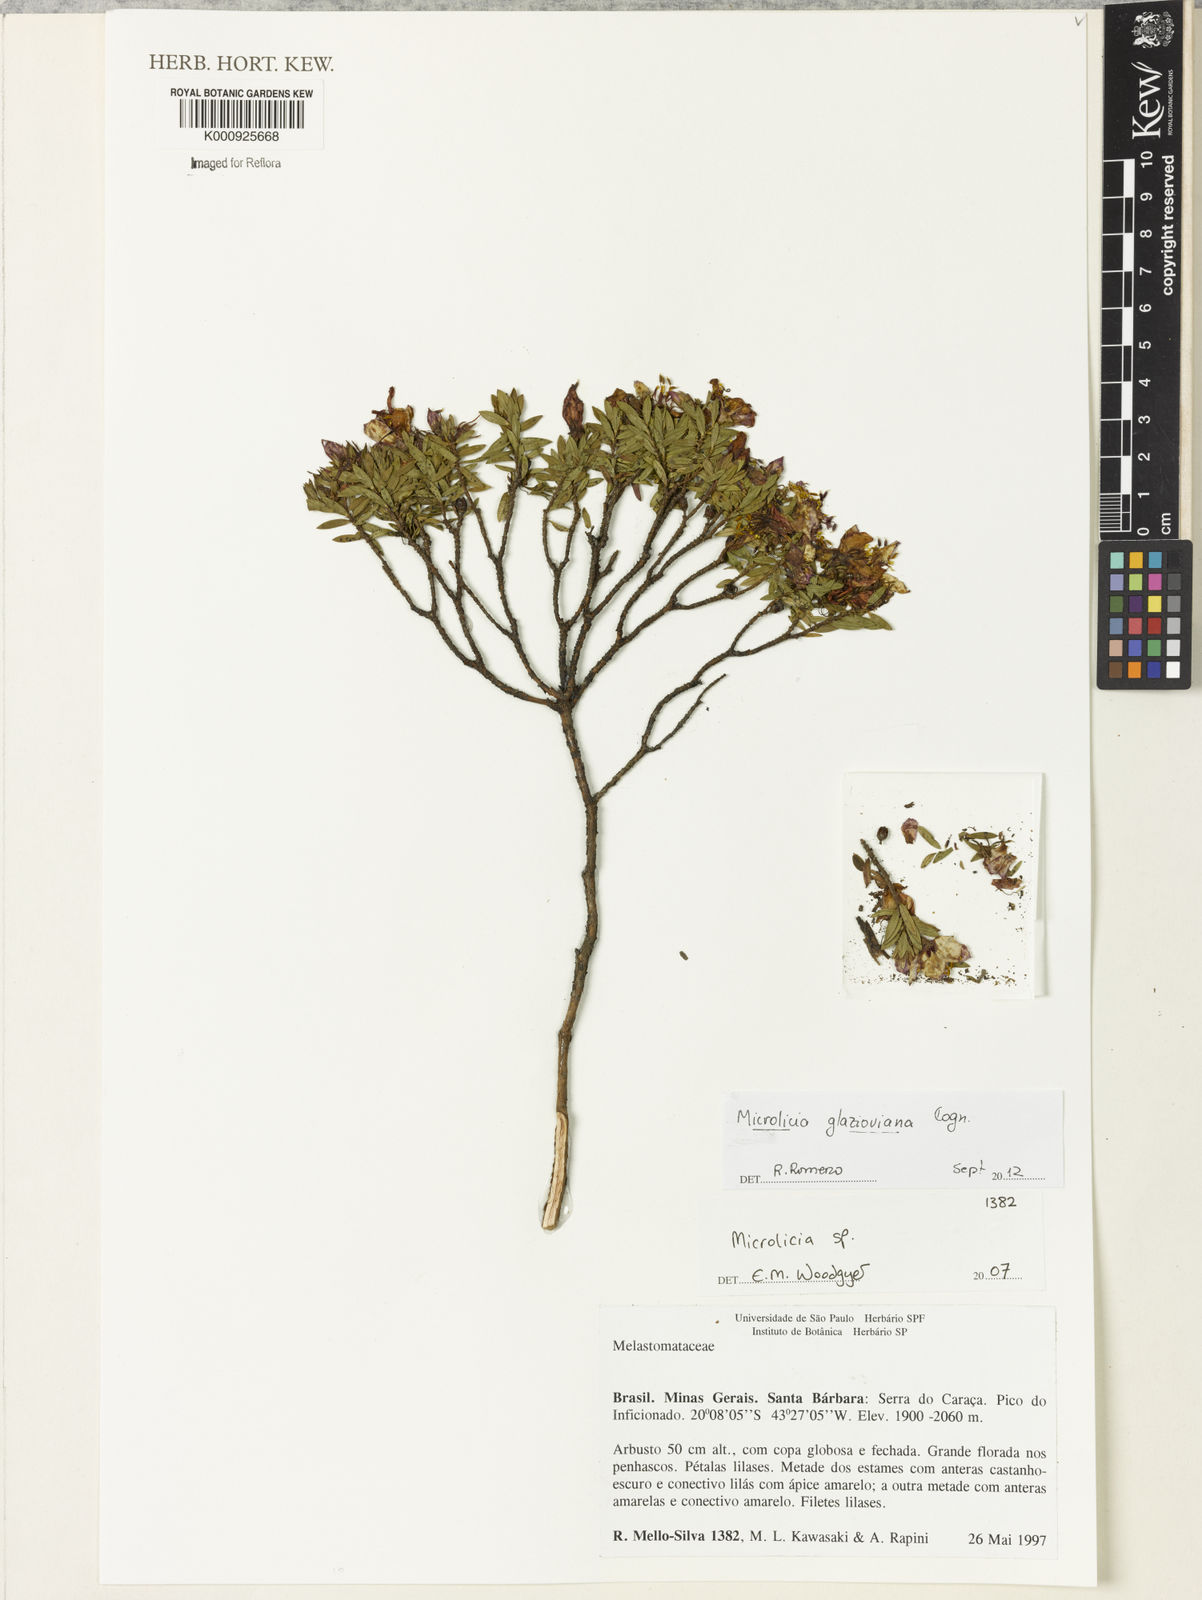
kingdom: Plantae
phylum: Tracheophyta
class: Magnoliopsida
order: Myrtales
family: Melastomataceae
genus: Microlicia
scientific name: Microlicia glazioviana
